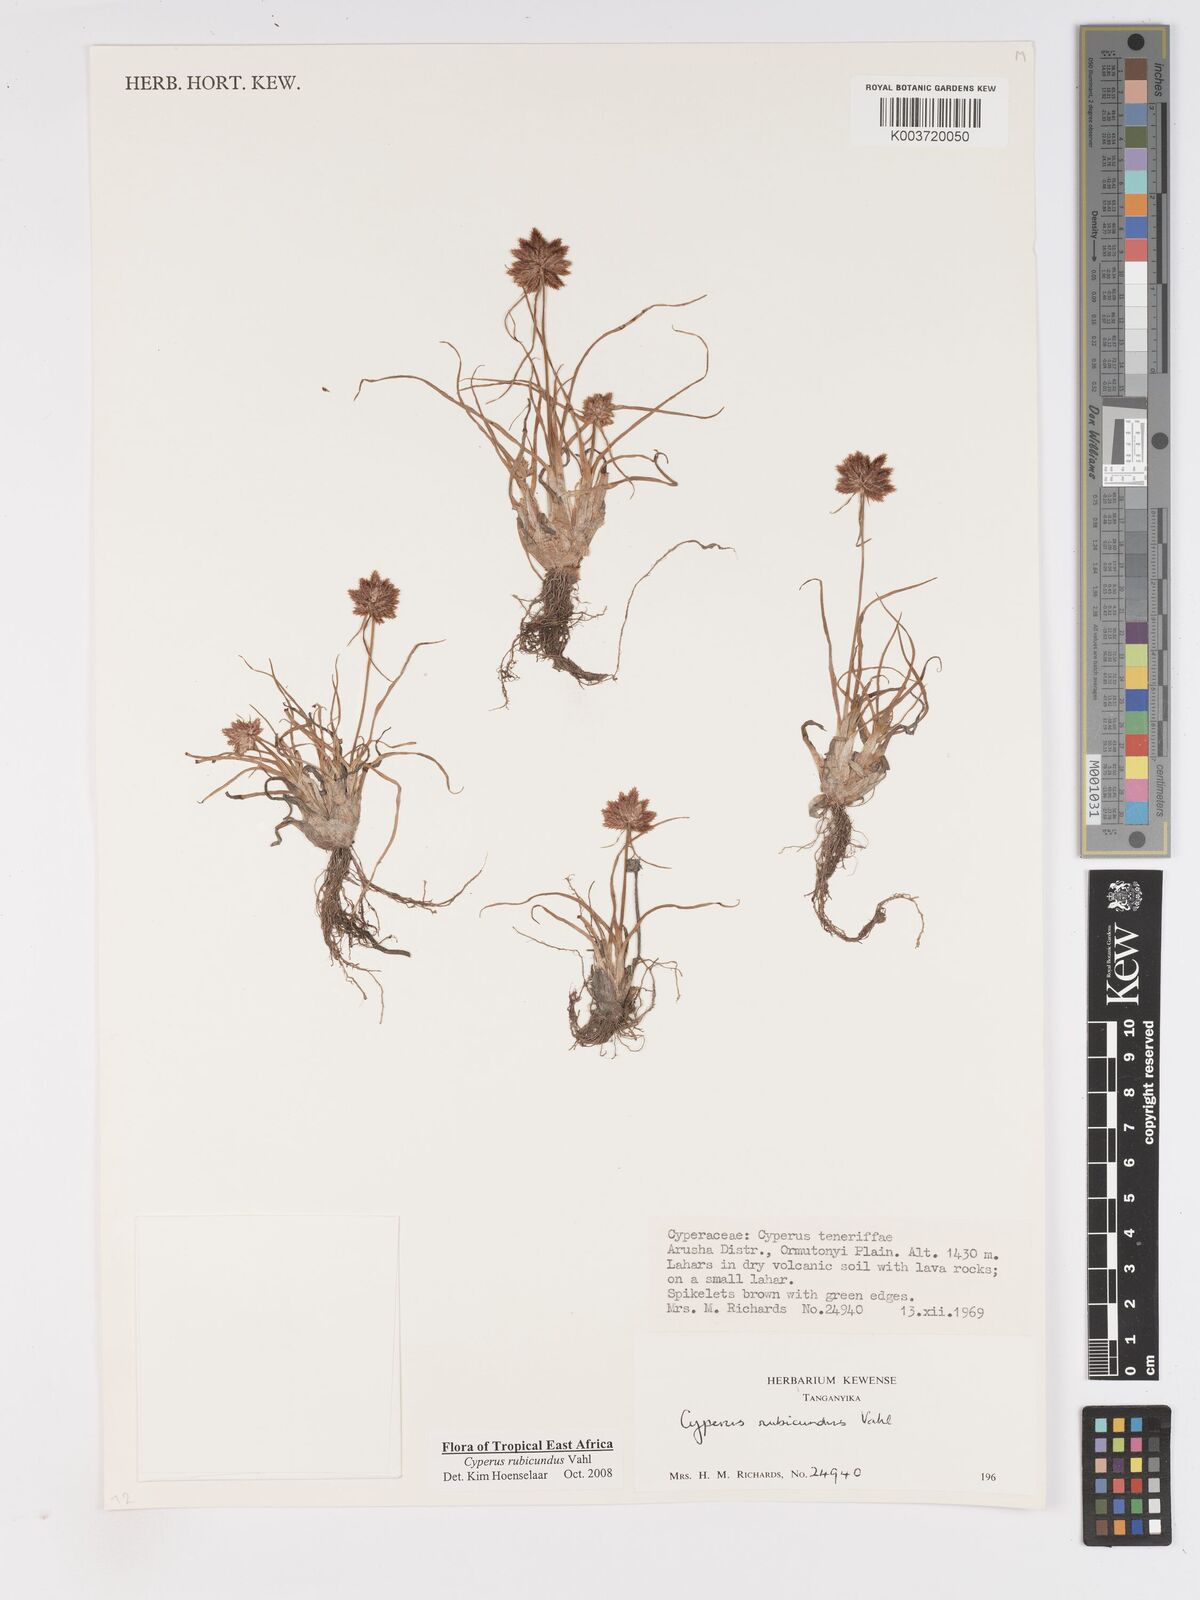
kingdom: Plantae
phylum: Tracheophyta
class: Liliopsida
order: Poales
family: Cyperaceae
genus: Cyperus
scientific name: Cyperus rubicundus
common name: Coco-grass
